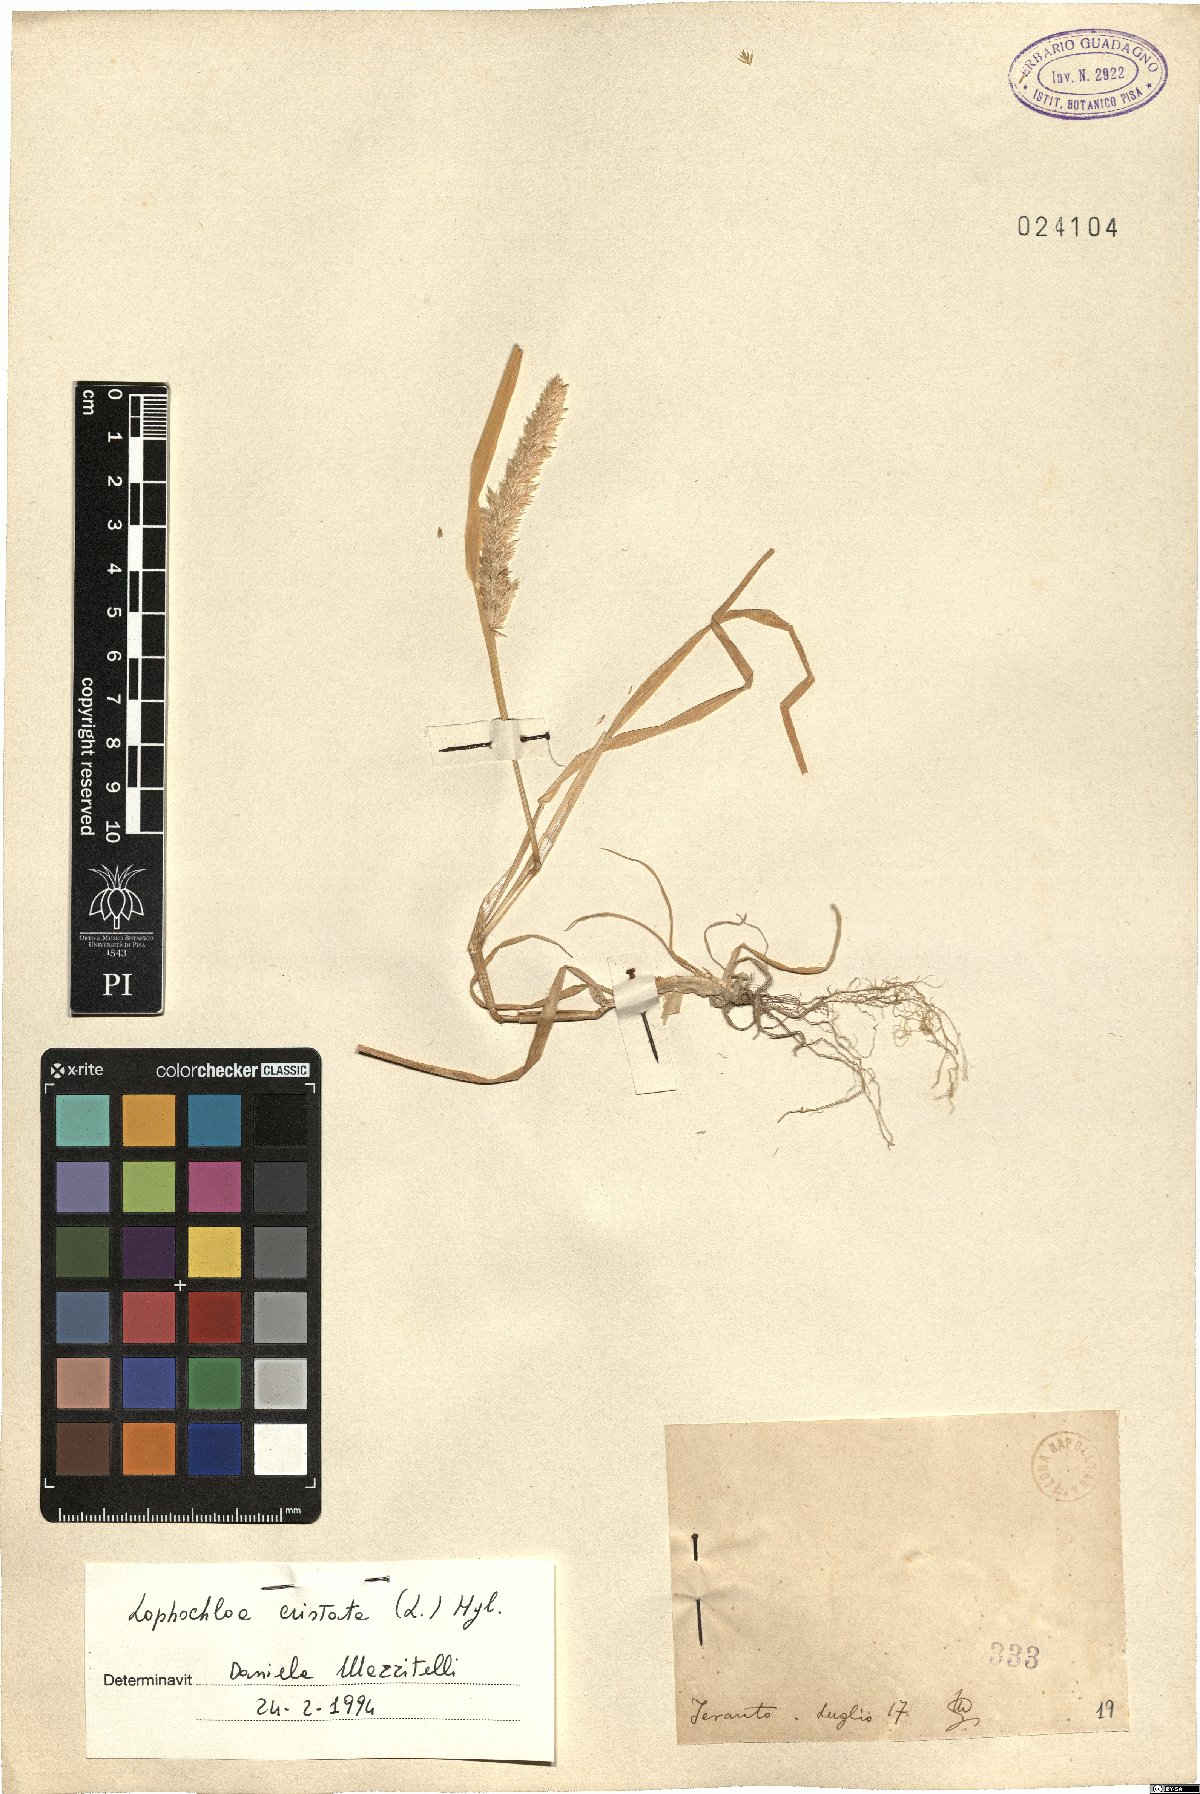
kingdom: Plantae
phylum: Tracheophyta
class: Liliopsida
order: Poales
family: Poaceae
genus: Rostraria
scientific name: Rostraria cristata
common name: Mediterranean hair-grass
